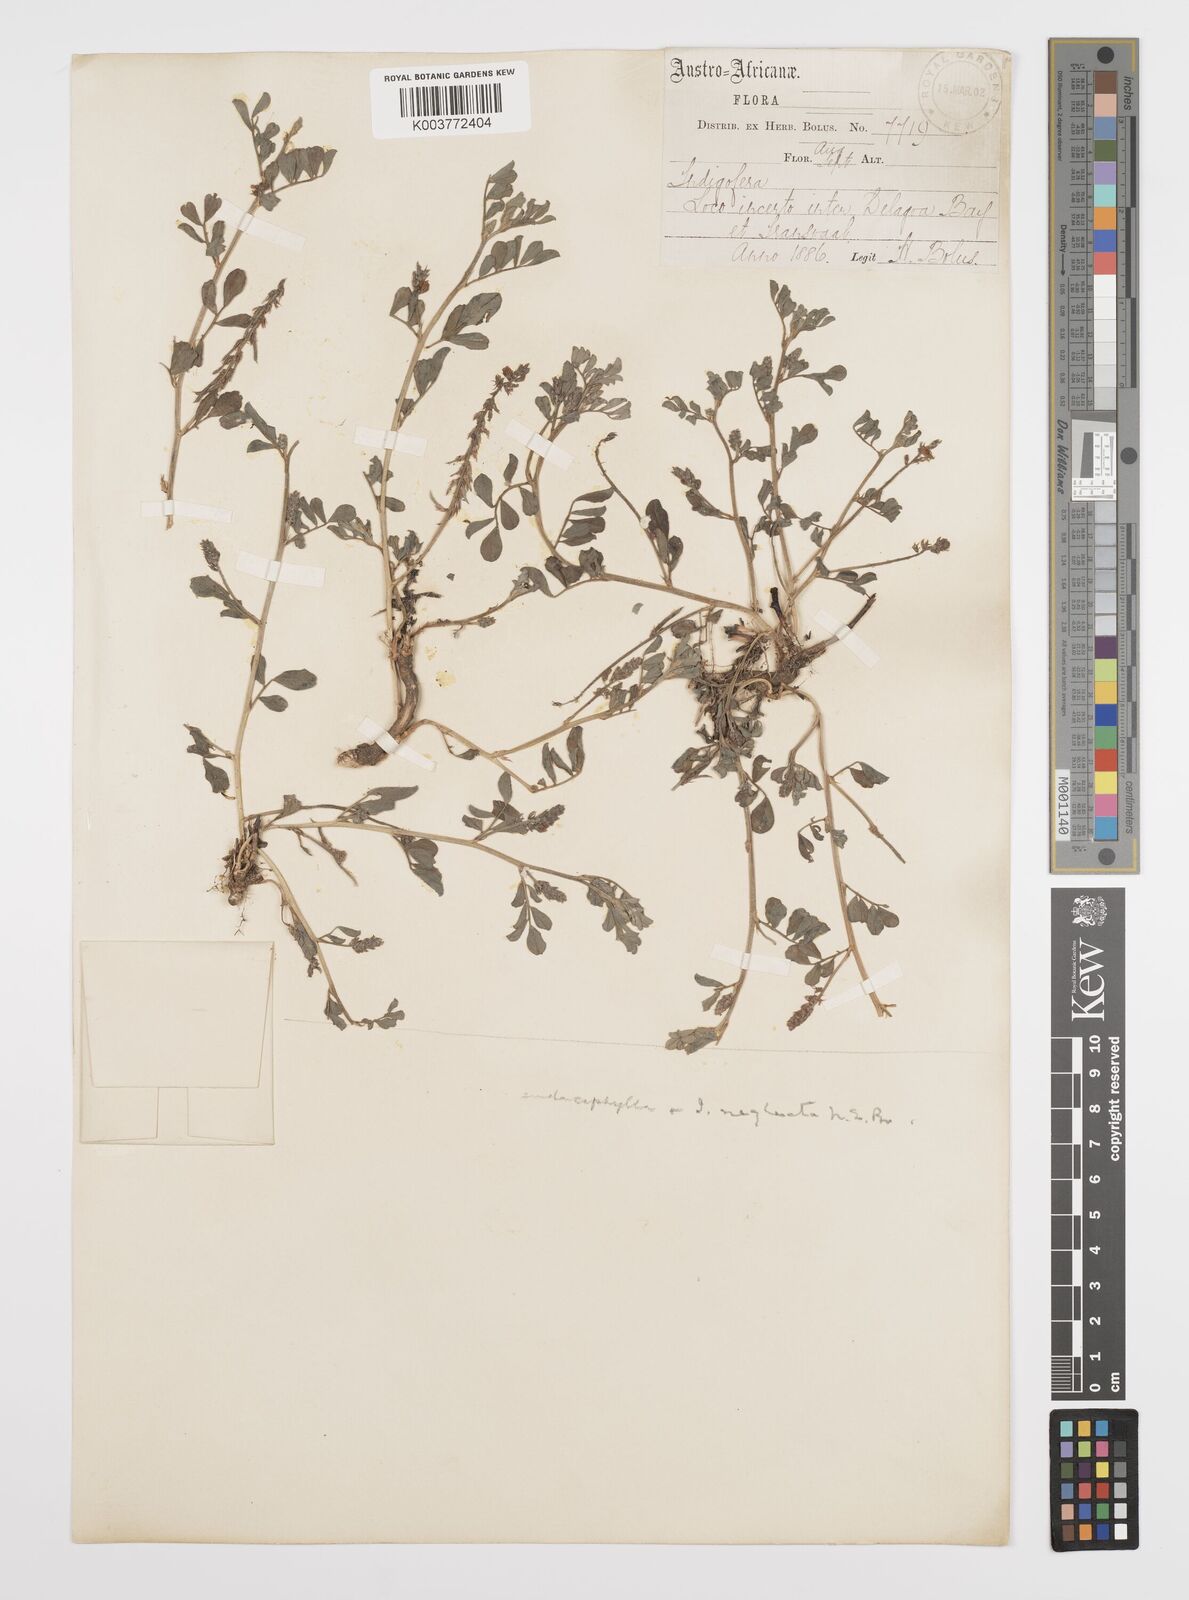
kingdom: Plantae
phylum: Tracheophyta
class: Magnoliopsida
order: Fabales
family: Fabaceae
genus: Indigofera
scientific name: Indigofera spicata
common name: Creeping indigo
